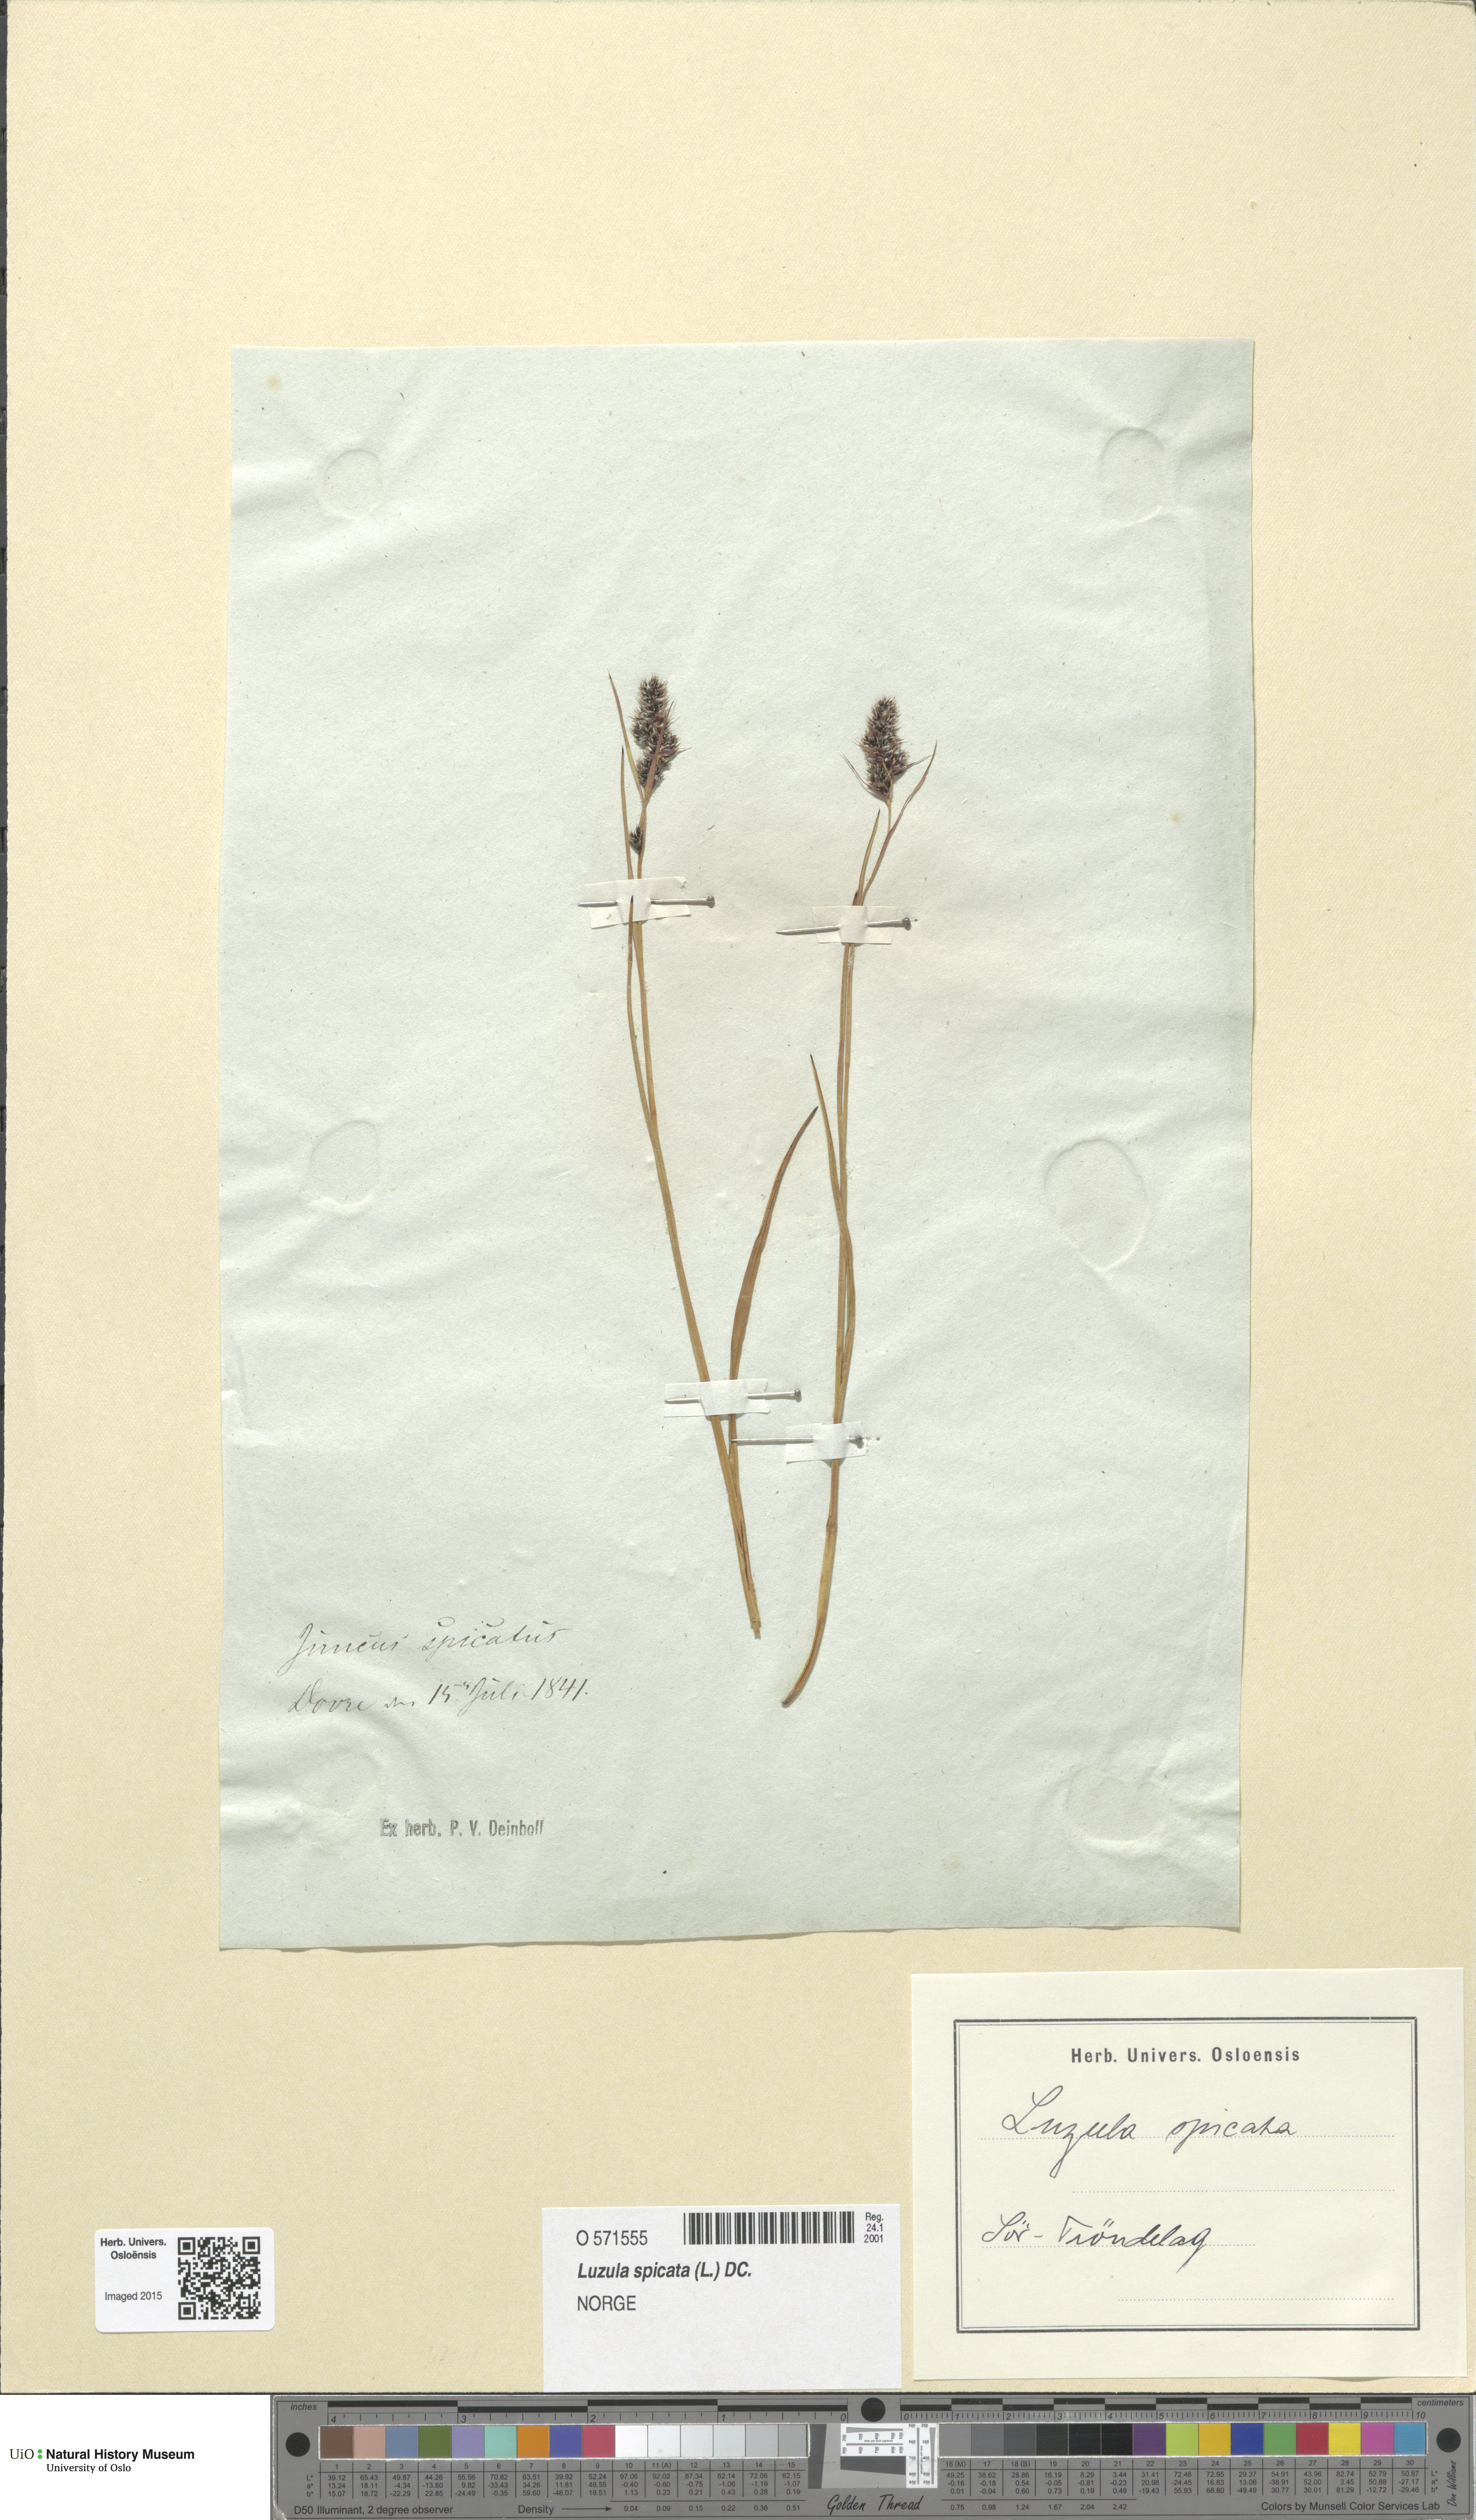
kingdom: Plantae
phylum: Tracheophyta
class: Liliopsida
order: Poales
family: Juncaceae
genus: Luzula
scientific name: Luzula spicata
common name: Spiked wood-rush
